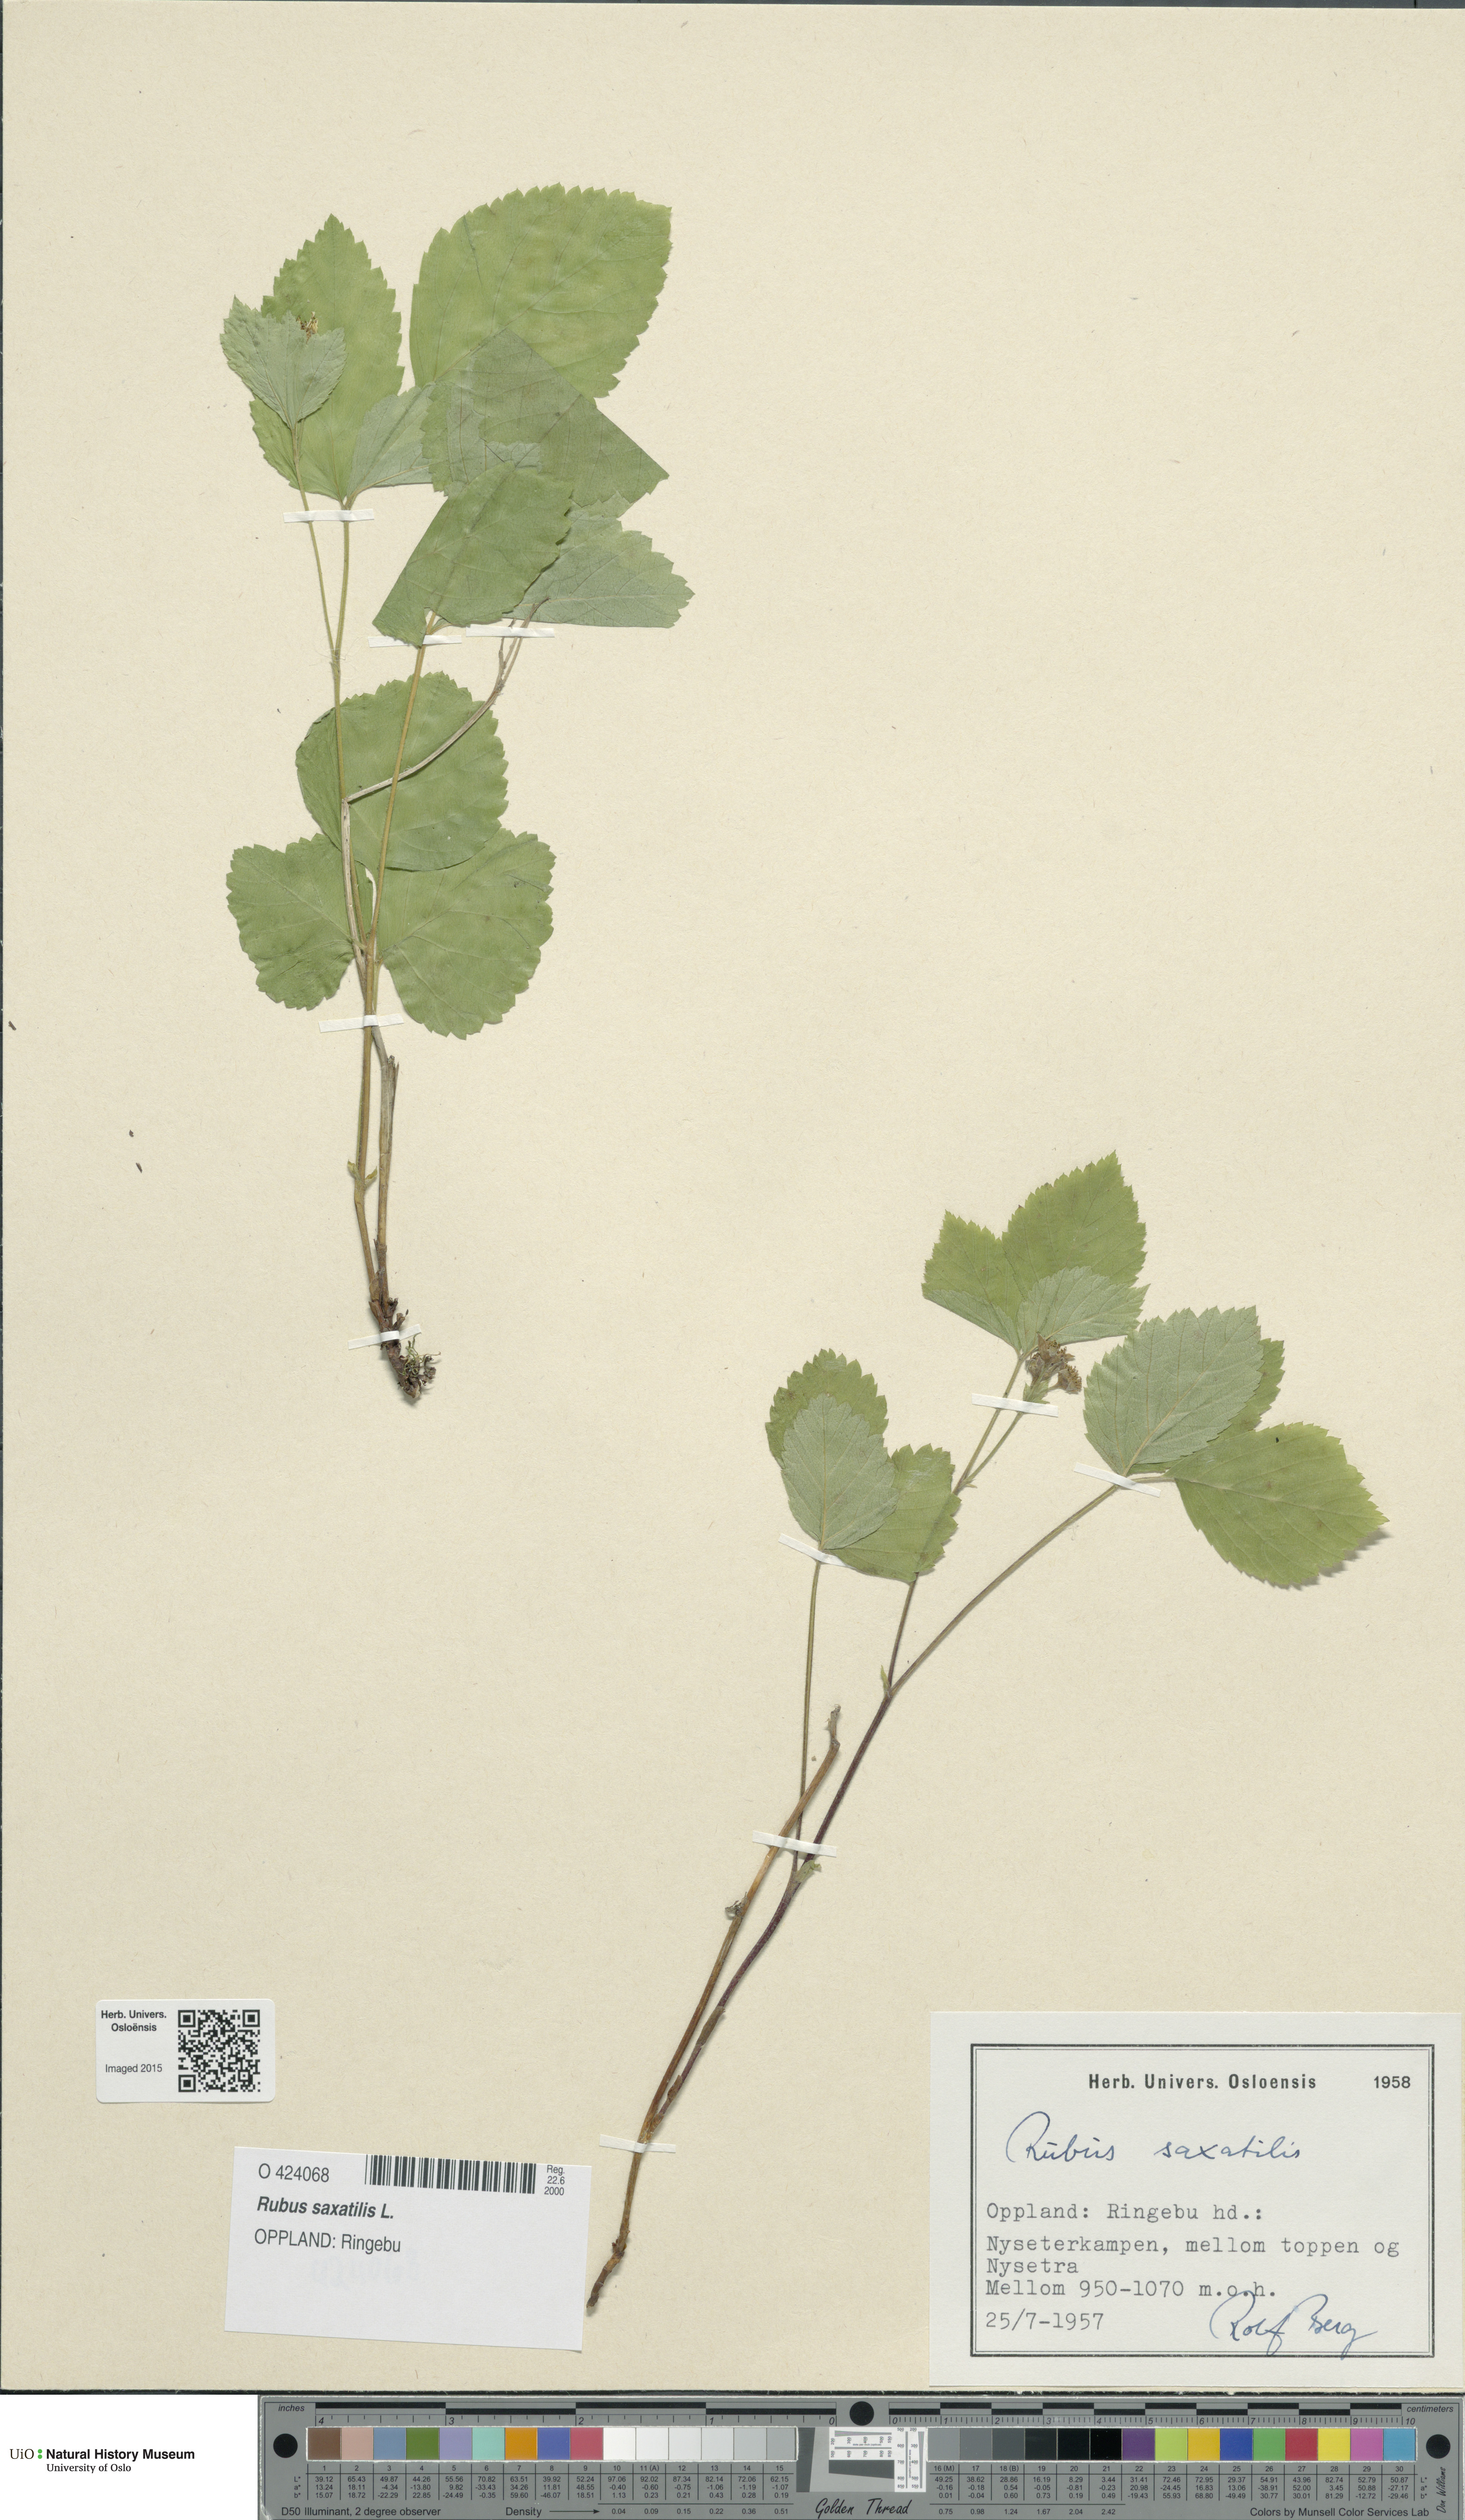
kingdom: Plantae
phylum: Tracheophyta
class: Magnoliopsida
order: Rosales
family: Rosaceae
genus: Rubus
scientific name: Rubus saxatilis
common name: Stone bramble
